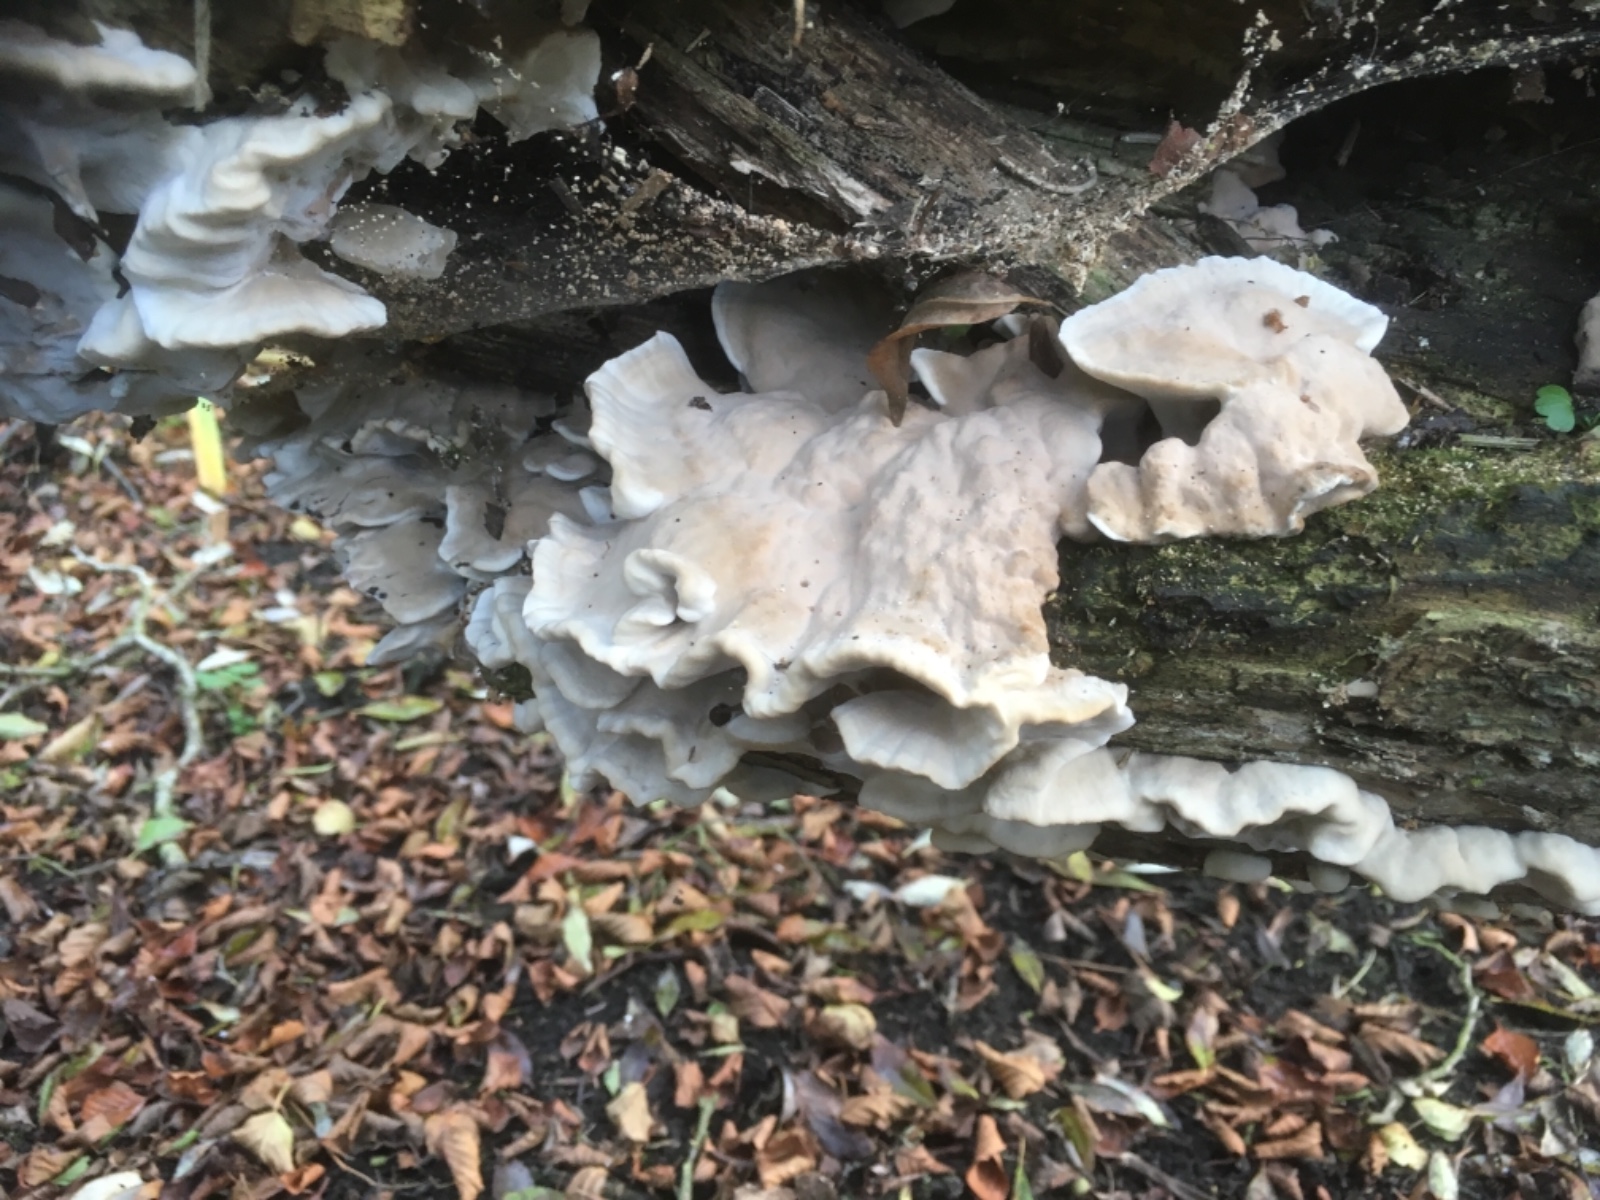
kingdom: Fungi
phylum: Basidiomycota
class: Agaricomycetes
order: Polyporales
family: Phanerochaetaceae
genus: Bjerkandera
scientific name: Bjerkandera adusta
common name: sveden sodporesvamp
